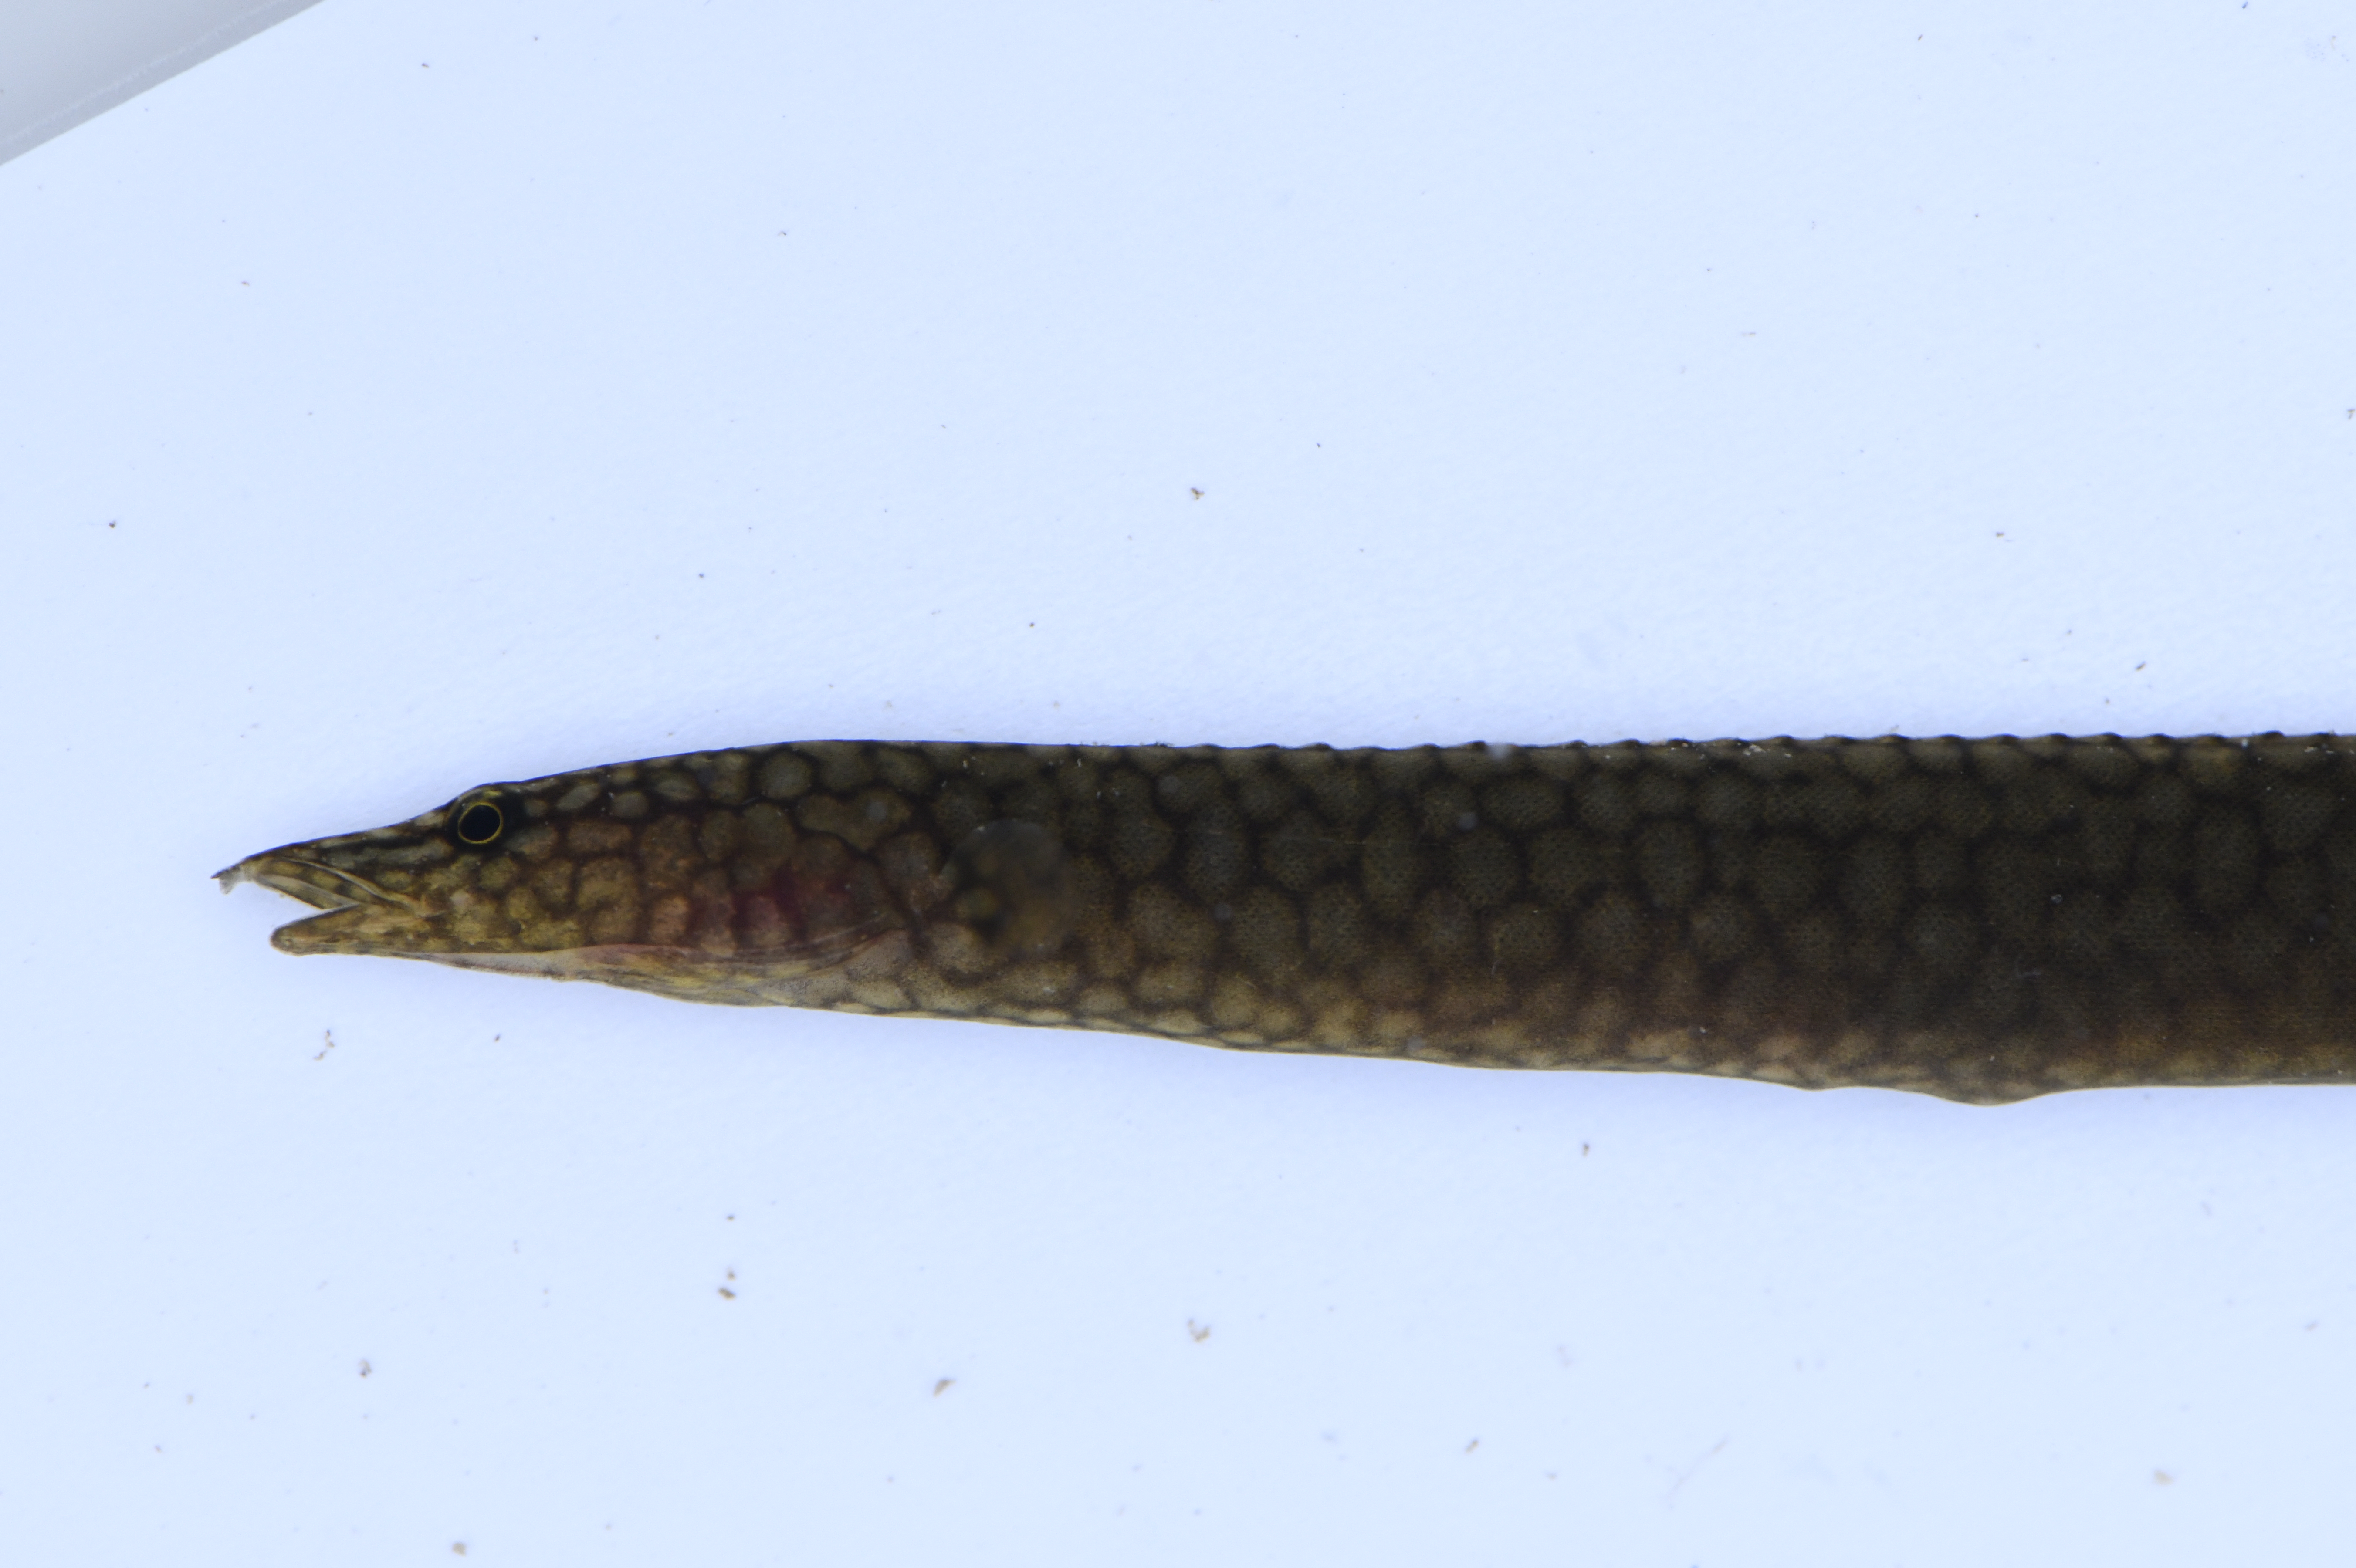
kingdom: Animalia
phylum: Chordata
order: Synbranchiformes
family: Mastacembelidae
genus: Mastacembelus
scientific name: Mastacembelus albomaculatus
